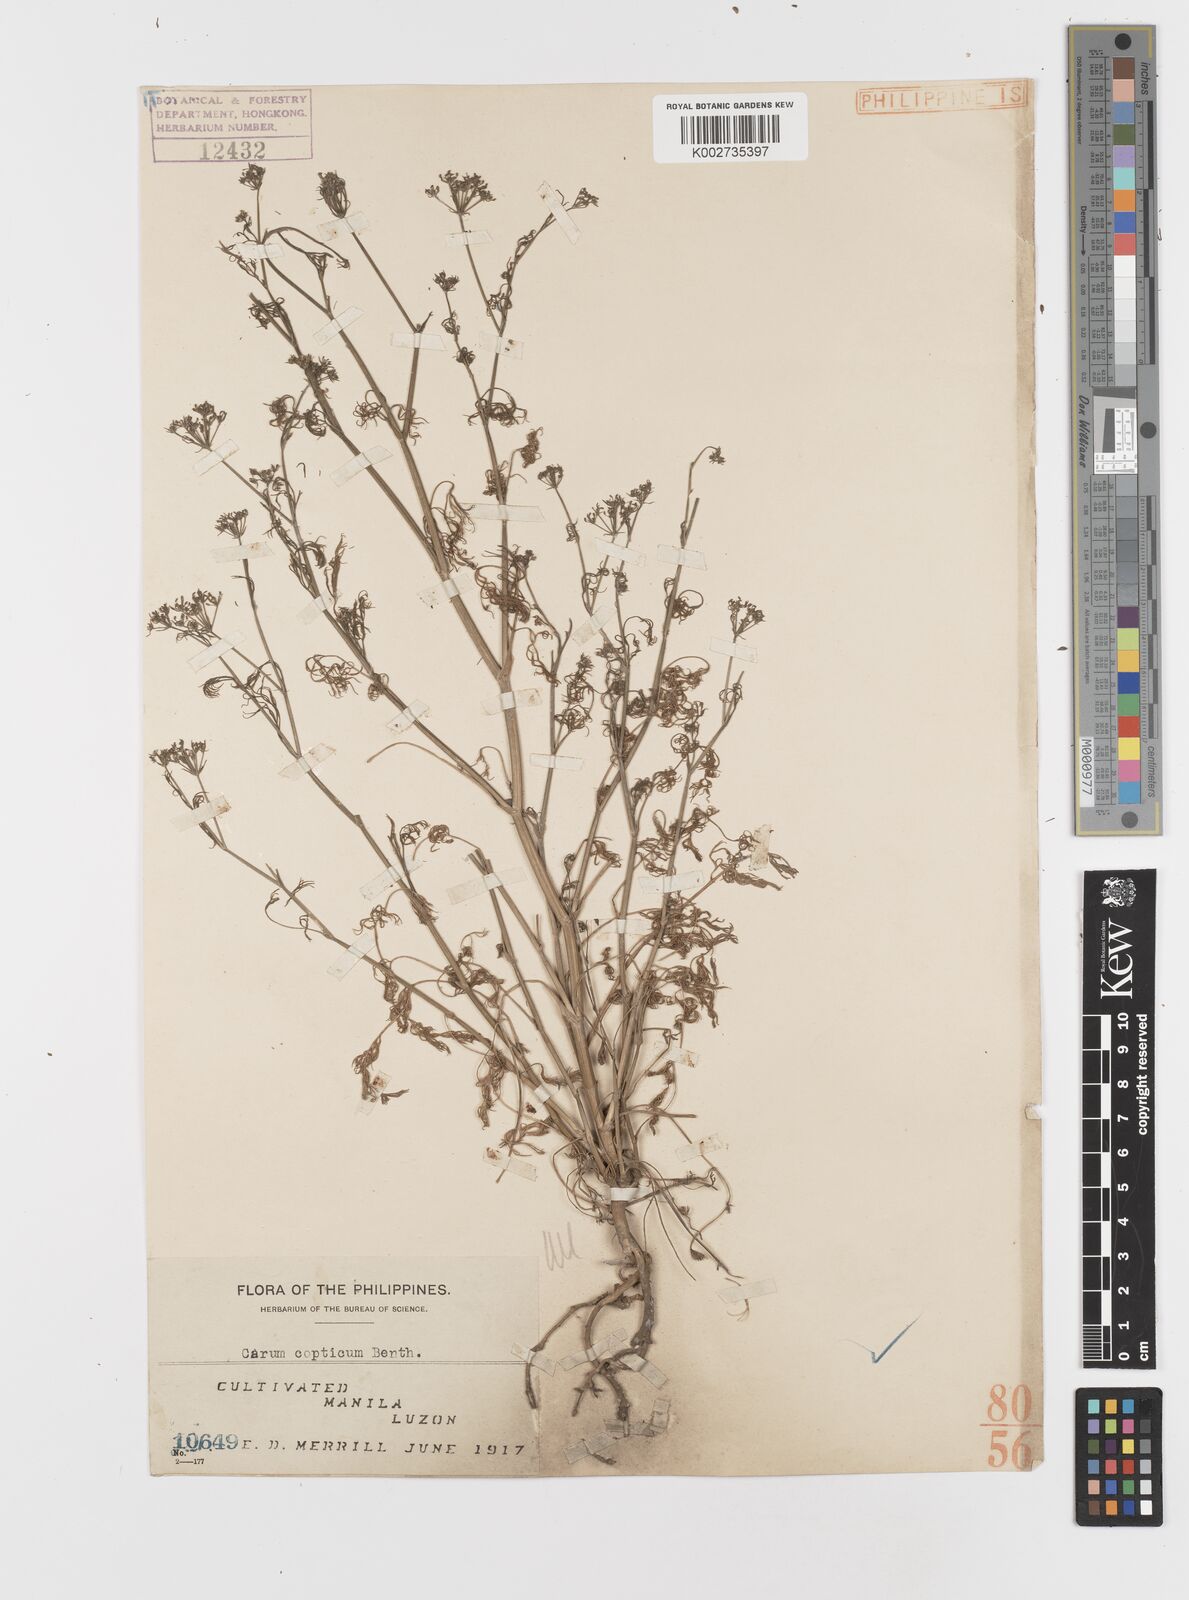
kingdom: Plantae
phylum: Tracheophyta
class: Magnoliopsida
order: Apiales
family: Apiaceae
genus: Trachyspermum
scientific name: Trachyspermum ammi
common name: Ajowan
